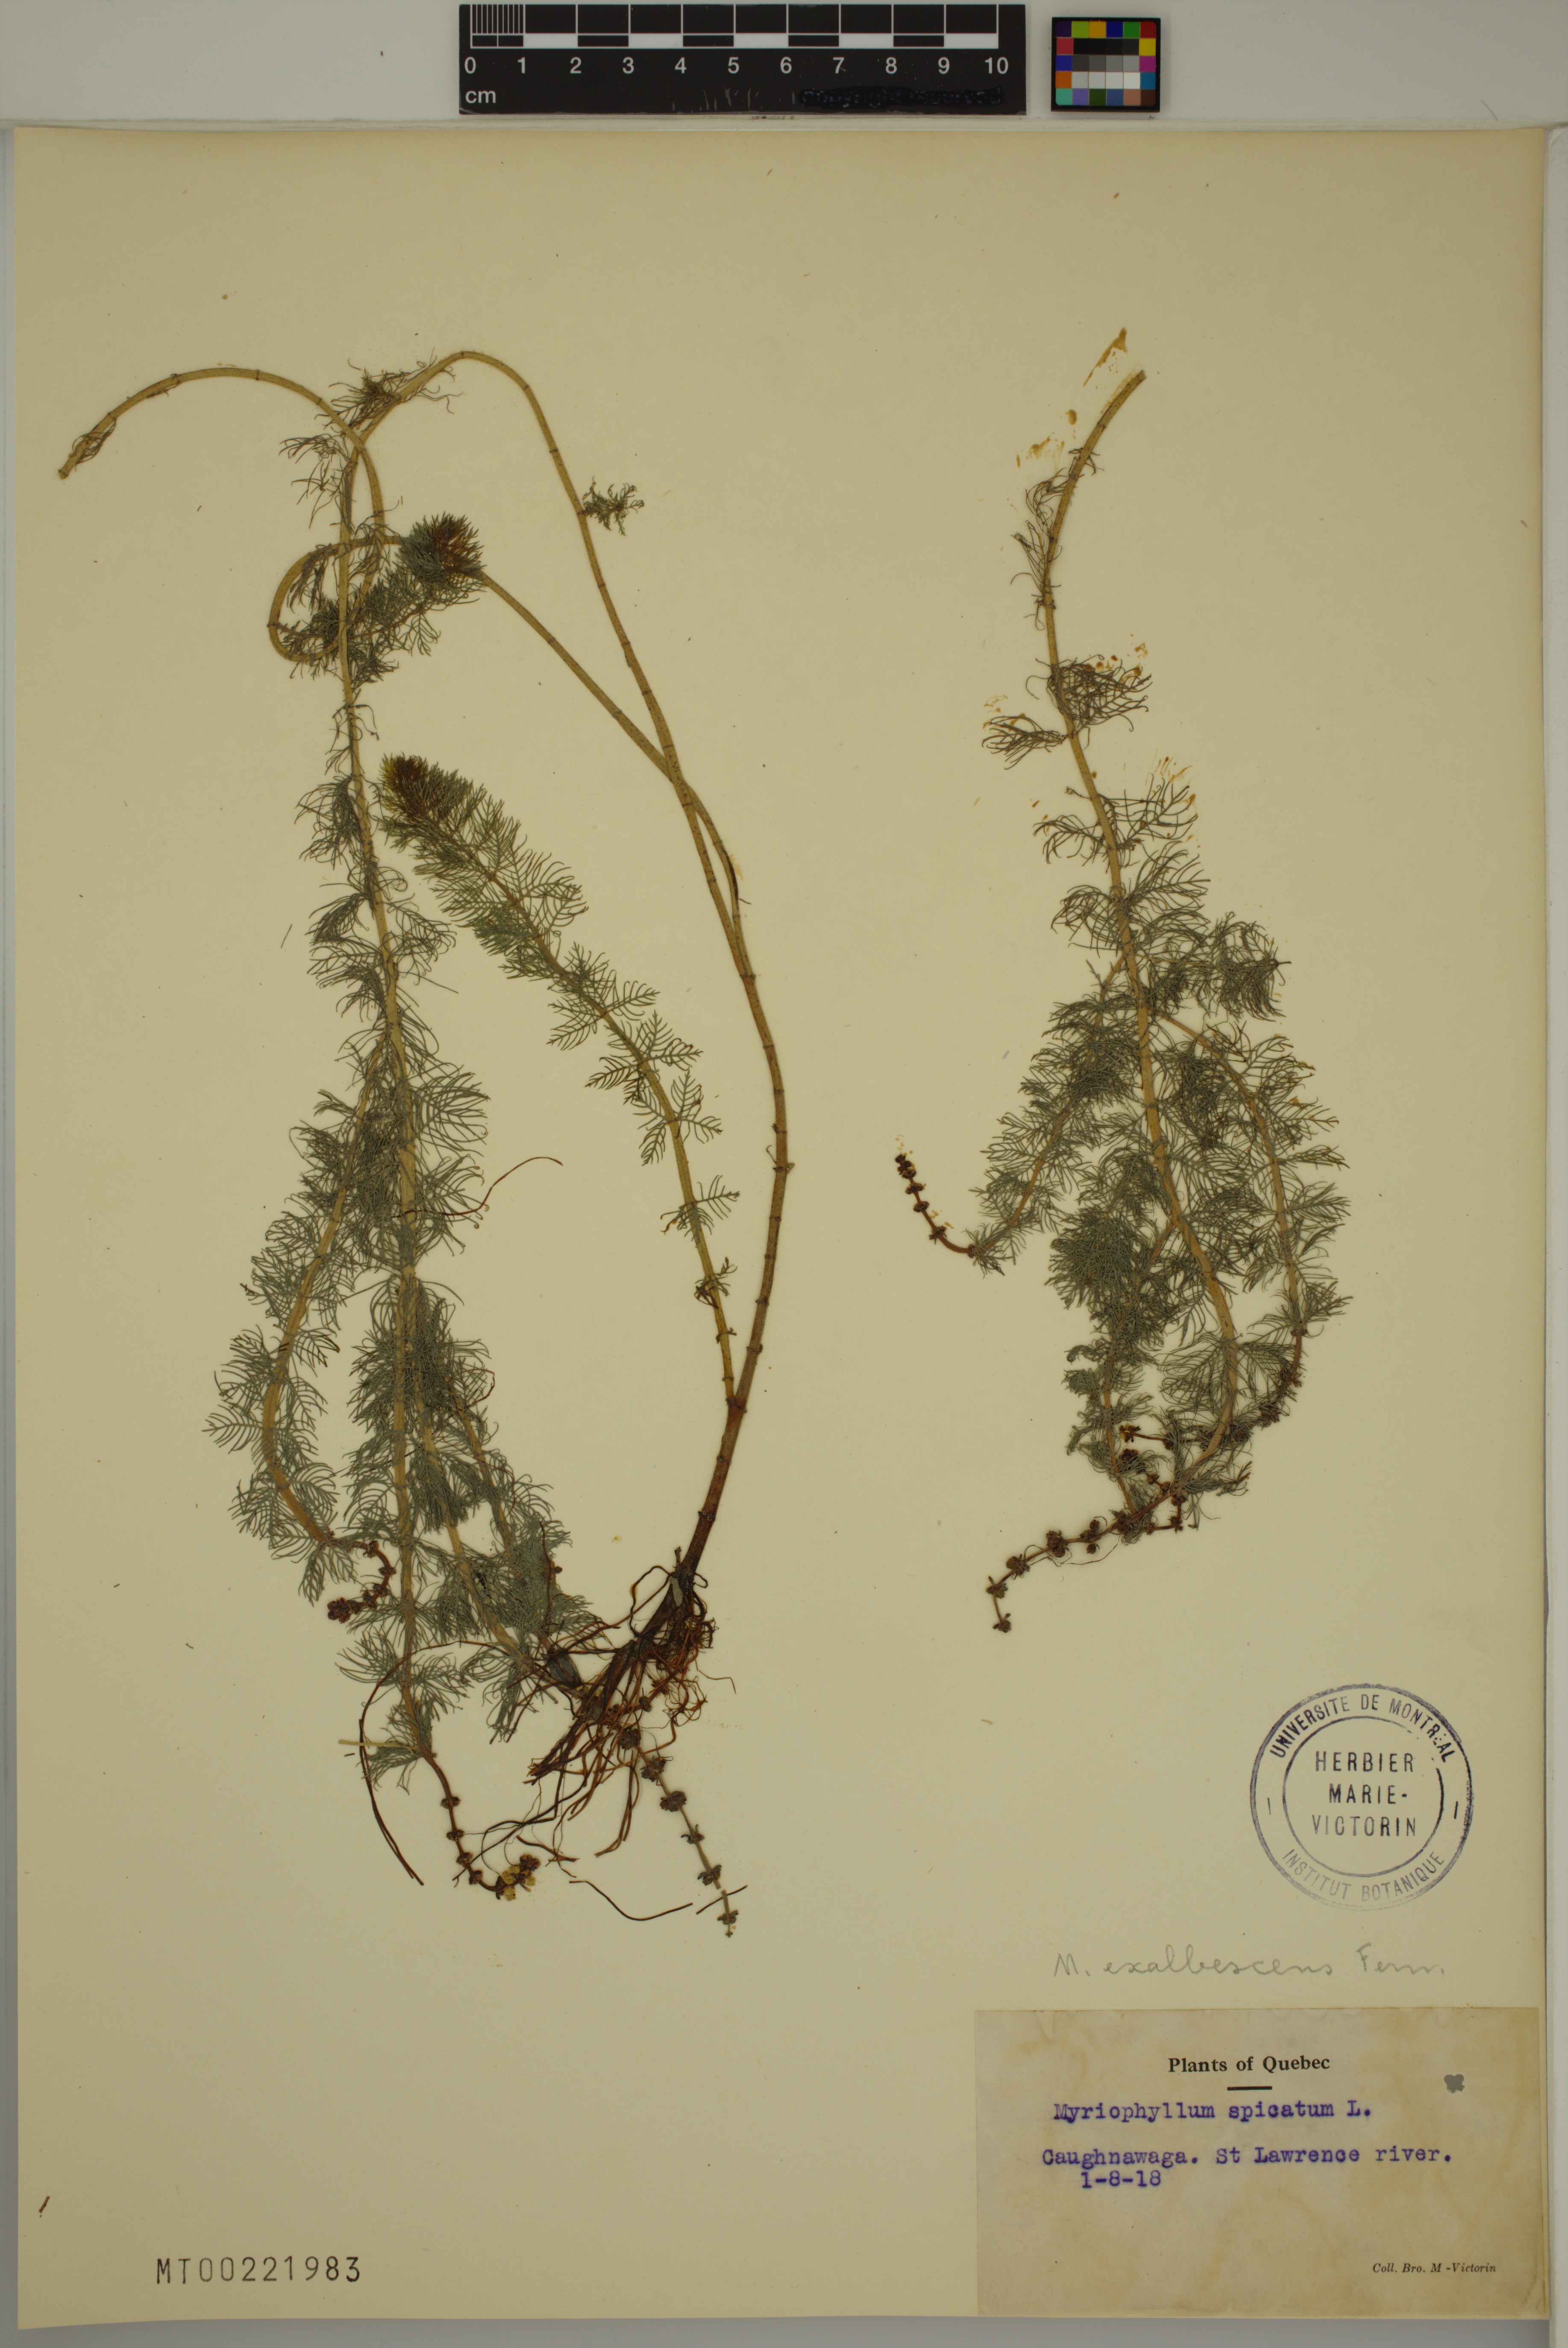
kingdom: Plantae
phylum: Tracheophyta
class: Magnoliopsida
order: Saxifragales
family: Haloragaceae
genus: Myriophyllum
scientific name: Myriophyllum sibiricum
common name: Siberian water-milfoil
